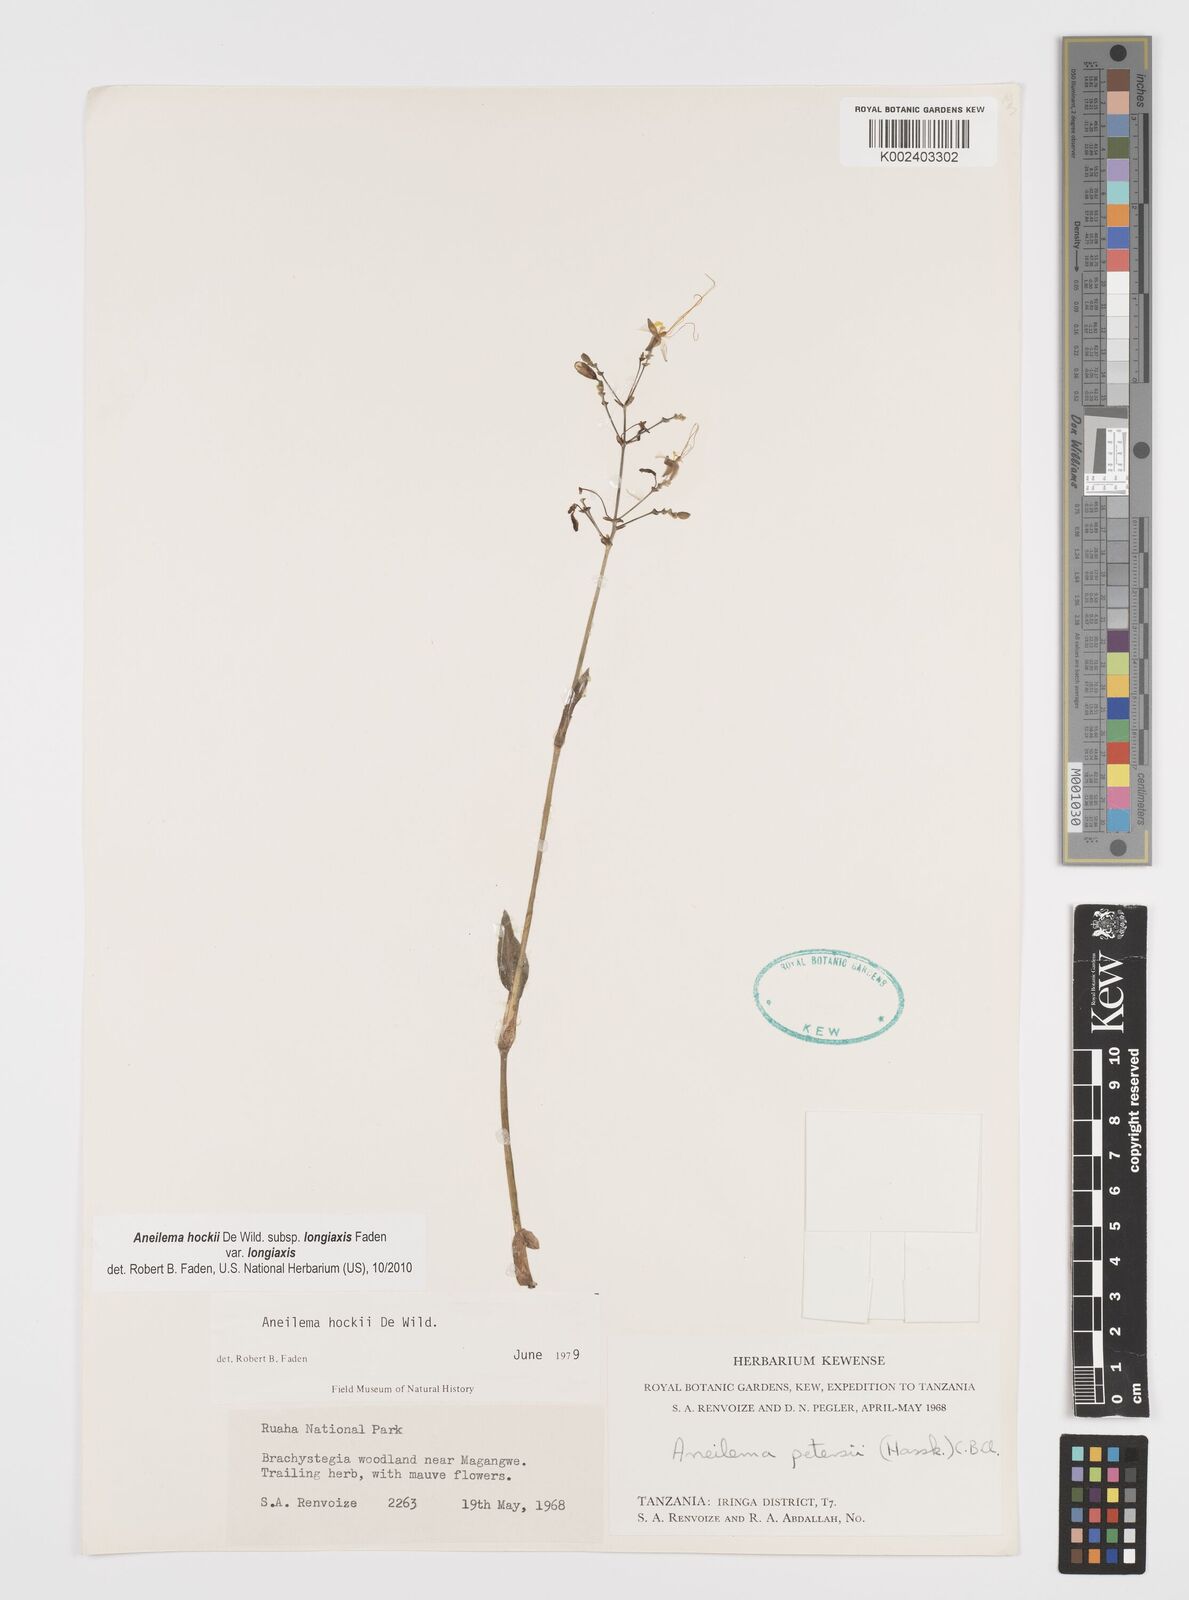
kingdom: Plantae
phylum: Tracheophyta
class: Liliopsida
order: Commelinales
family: Commelinaceae
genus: Aneilema
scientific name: Aneilema hockii
